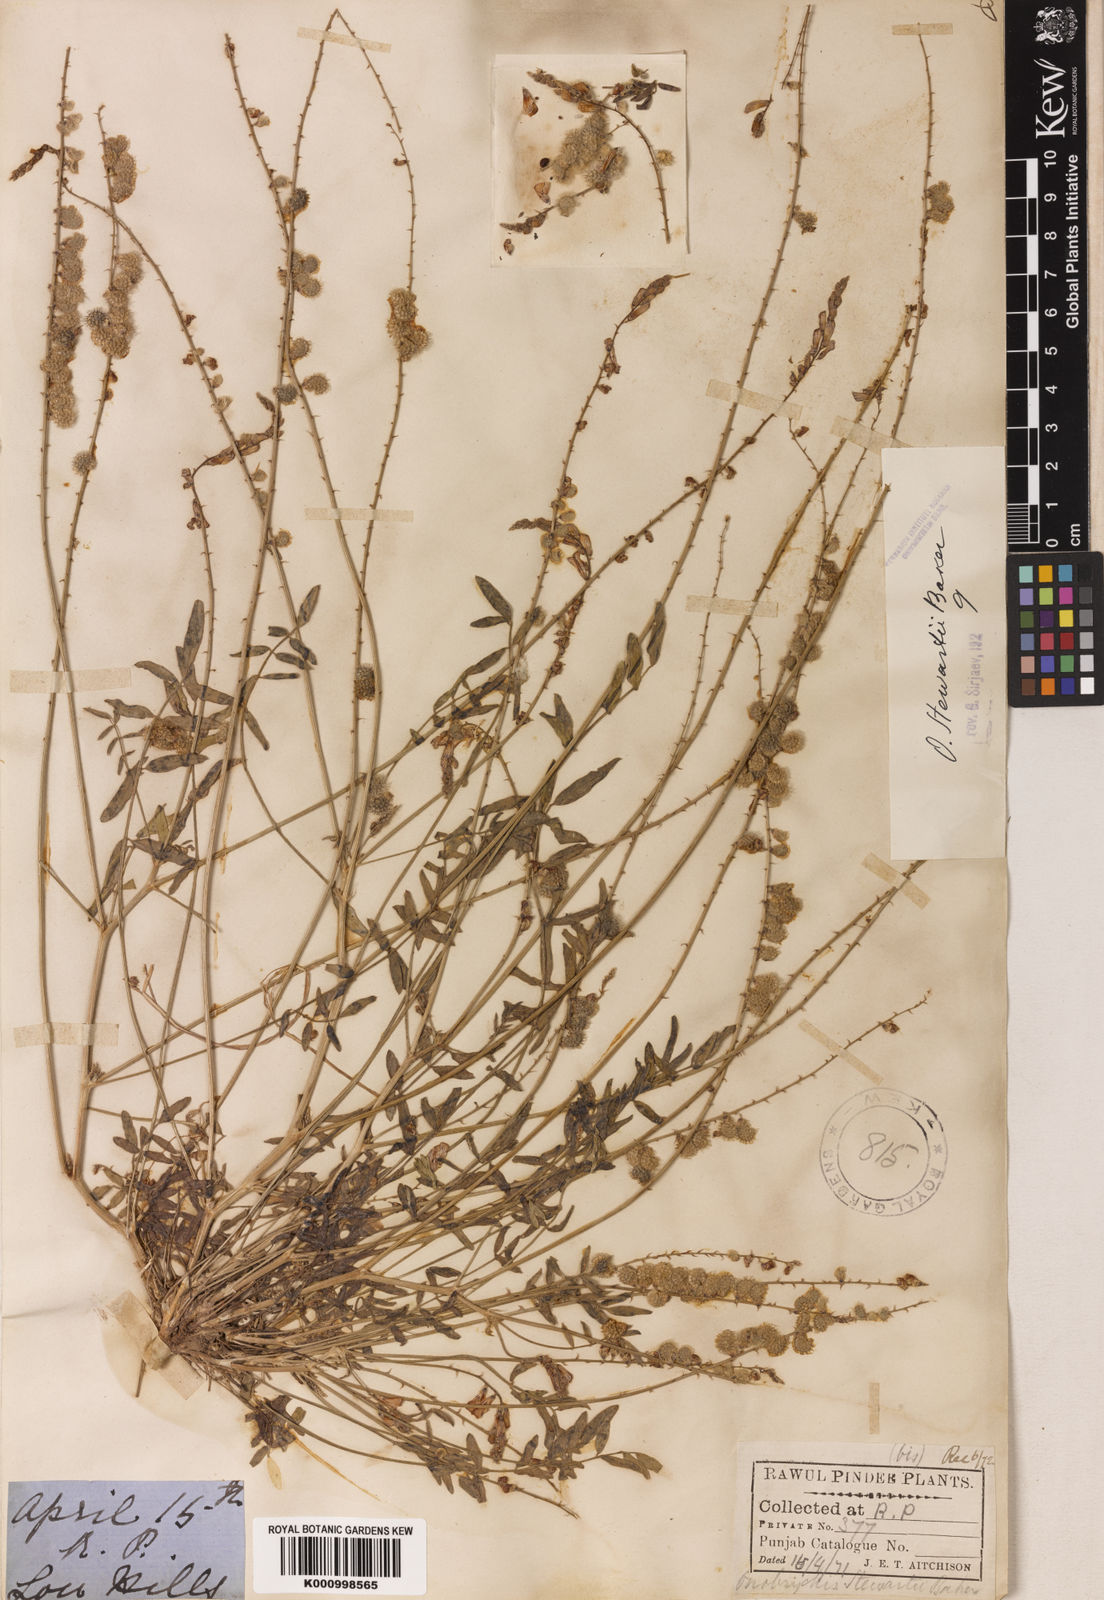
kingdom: Plantae
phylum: Tracheophyta
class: Magnoliopsida
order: Fabales
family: Fabaceae
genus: Onobrychis
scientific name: Onobrychis stewartii
